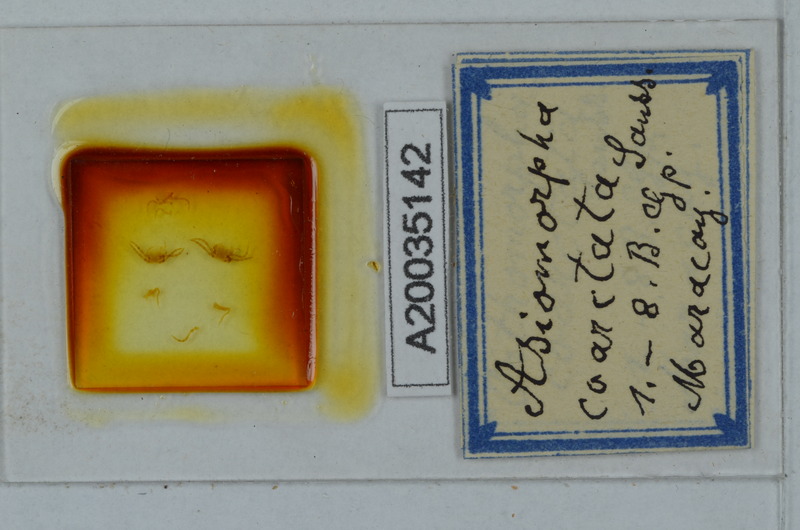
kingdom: Animalia
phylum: Arthropoda
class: Diplopoda
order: Polydesmida
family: Paradoxosomatidae
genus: Asiomorpha
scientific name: Asiomorpha coarctata
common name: Millipede
